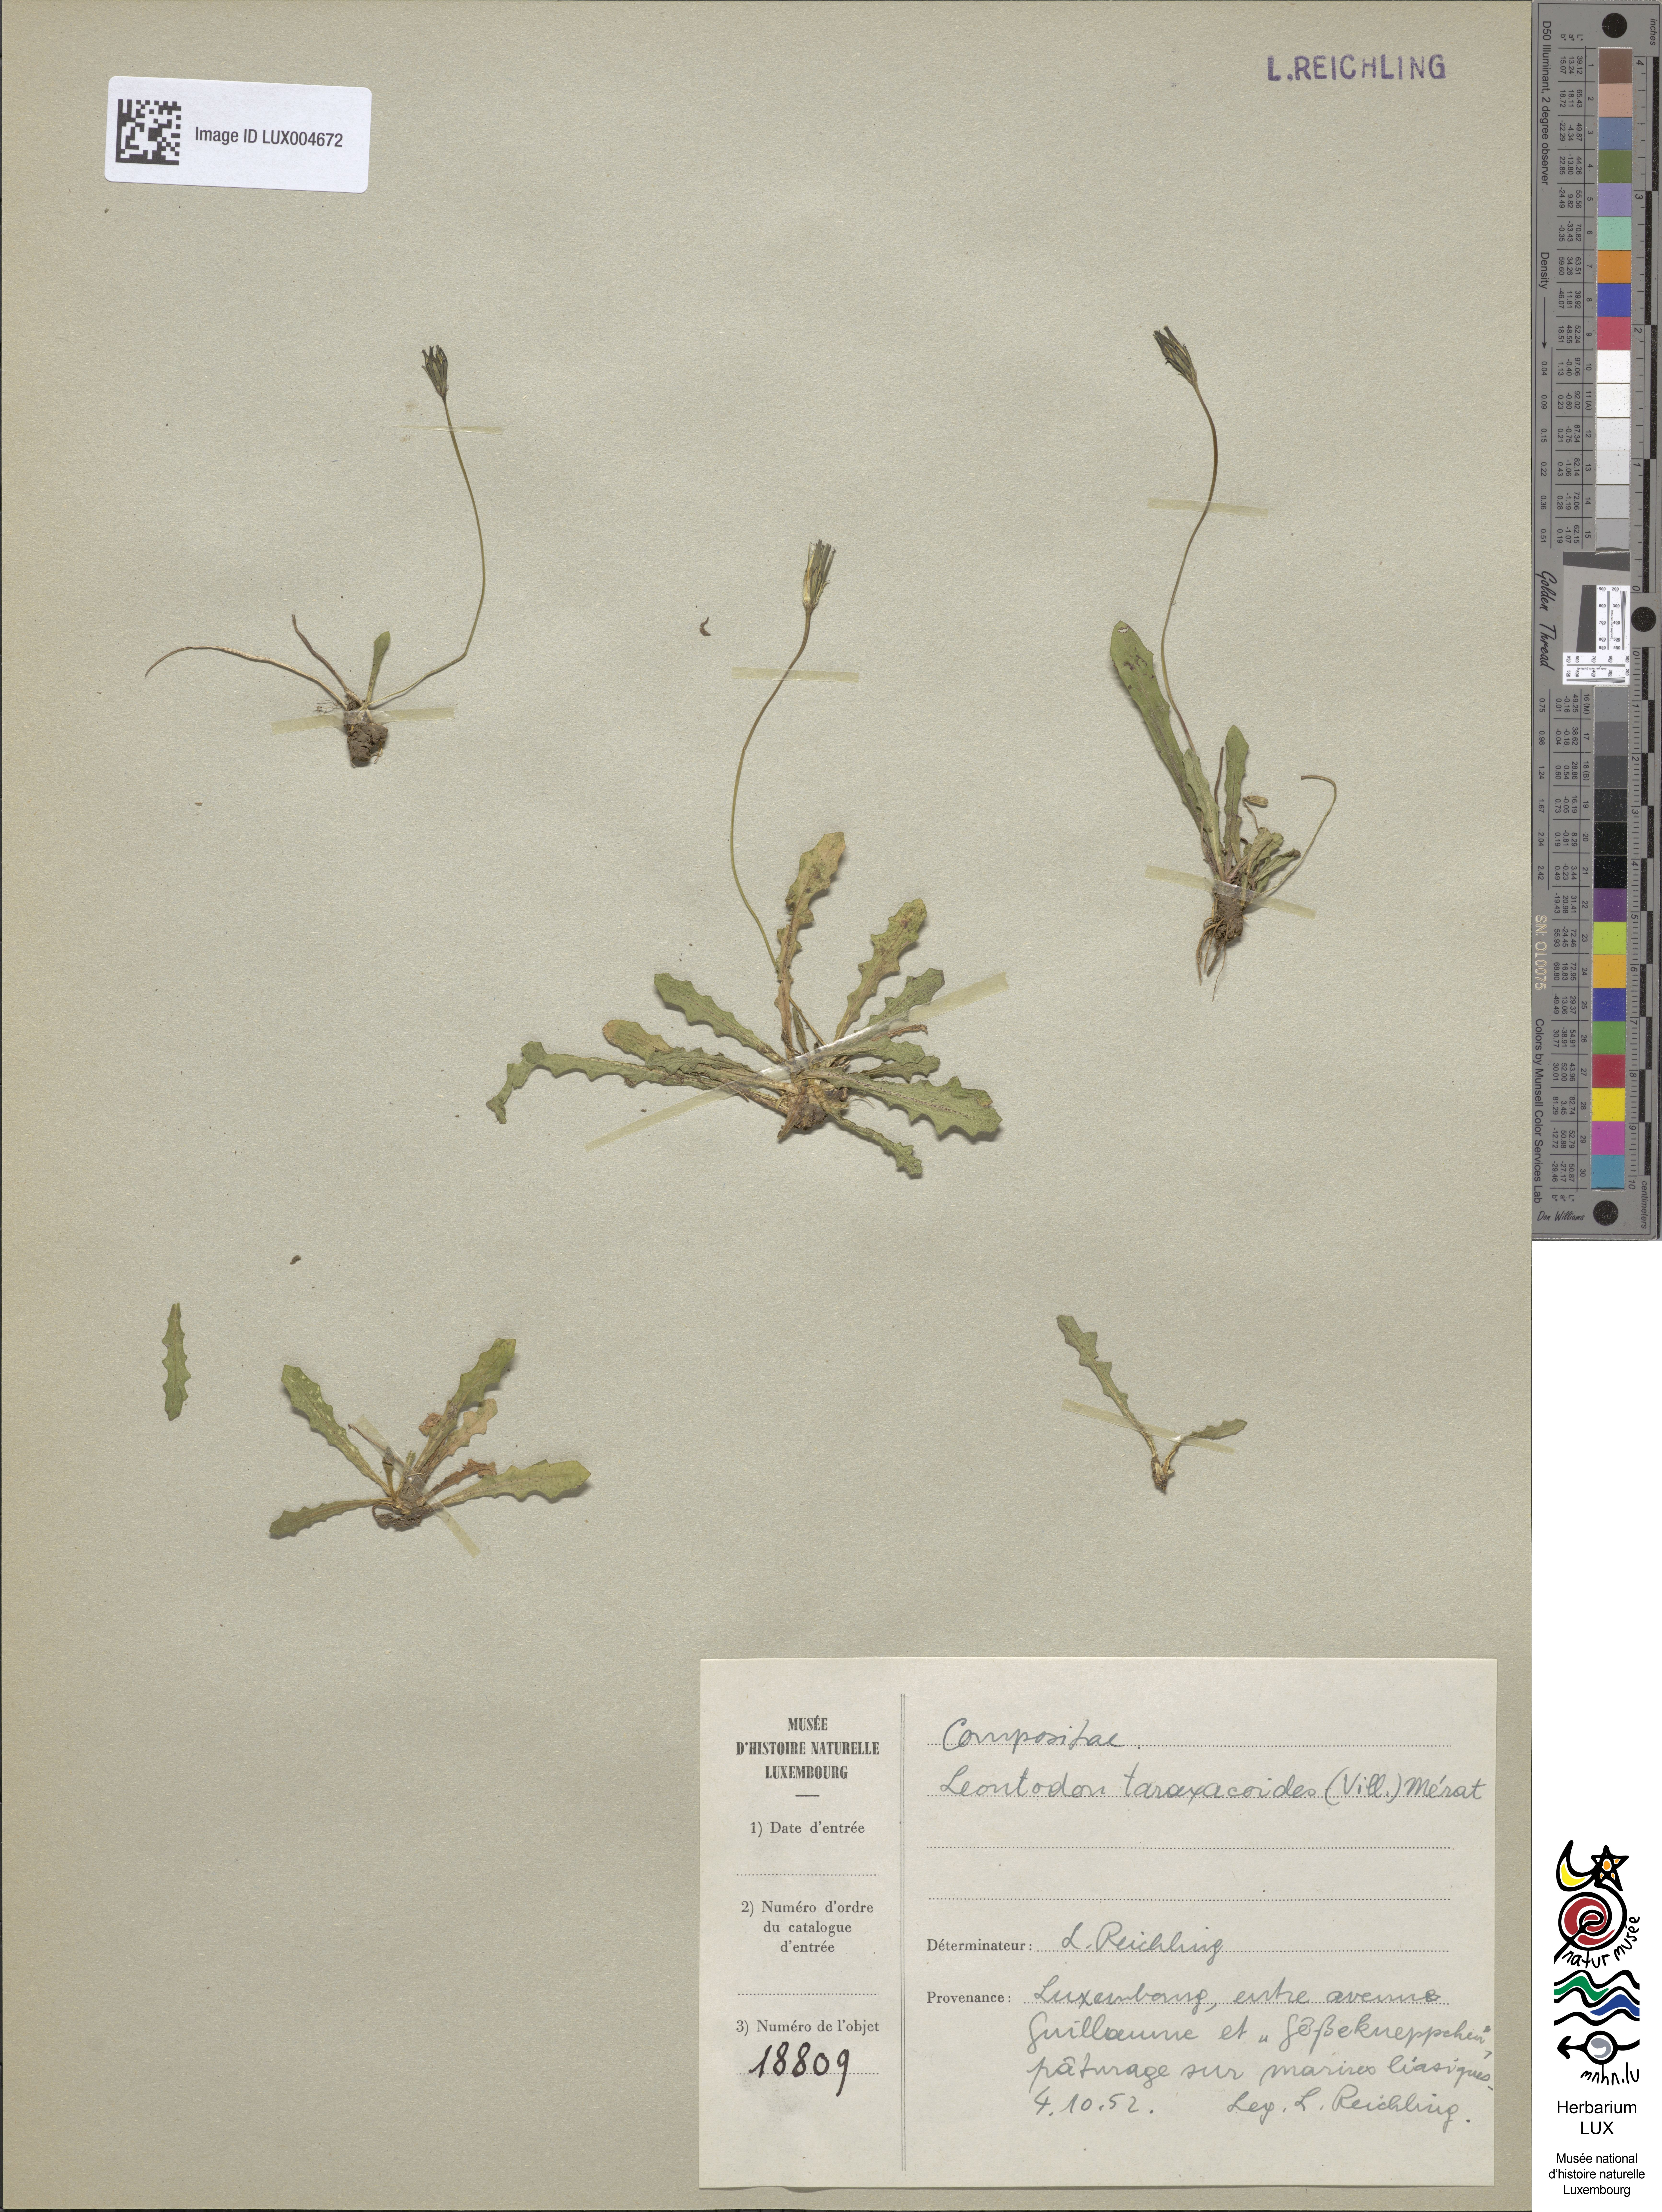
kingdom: Plantae
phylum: Tracheophyta
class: Magnoliopsida
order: Asterales
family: Asteraceae
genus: Thrincia
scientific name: Thrincia saxatilis
